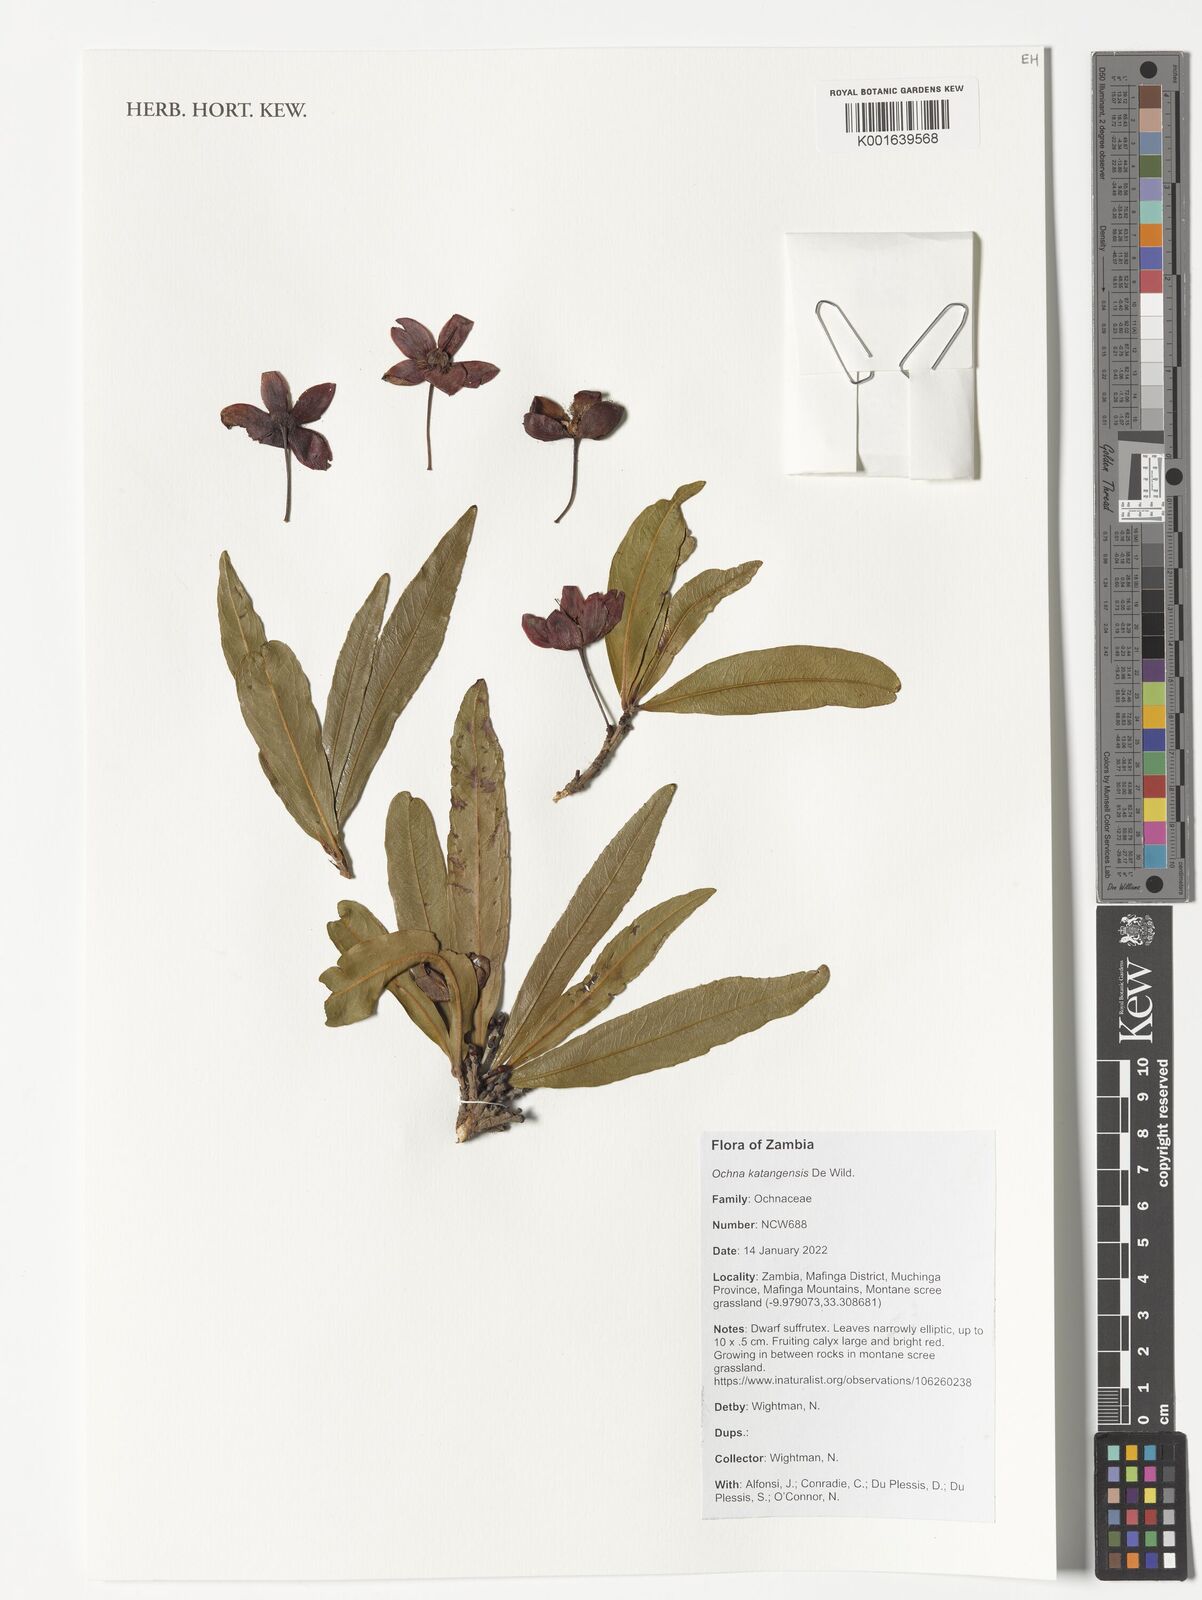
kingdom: Plantae
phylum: Tracheophyta
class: Magnoliopsida
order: Malpighiales
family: Ochnaceae
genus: Ochna
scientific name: Ochna katangensis
